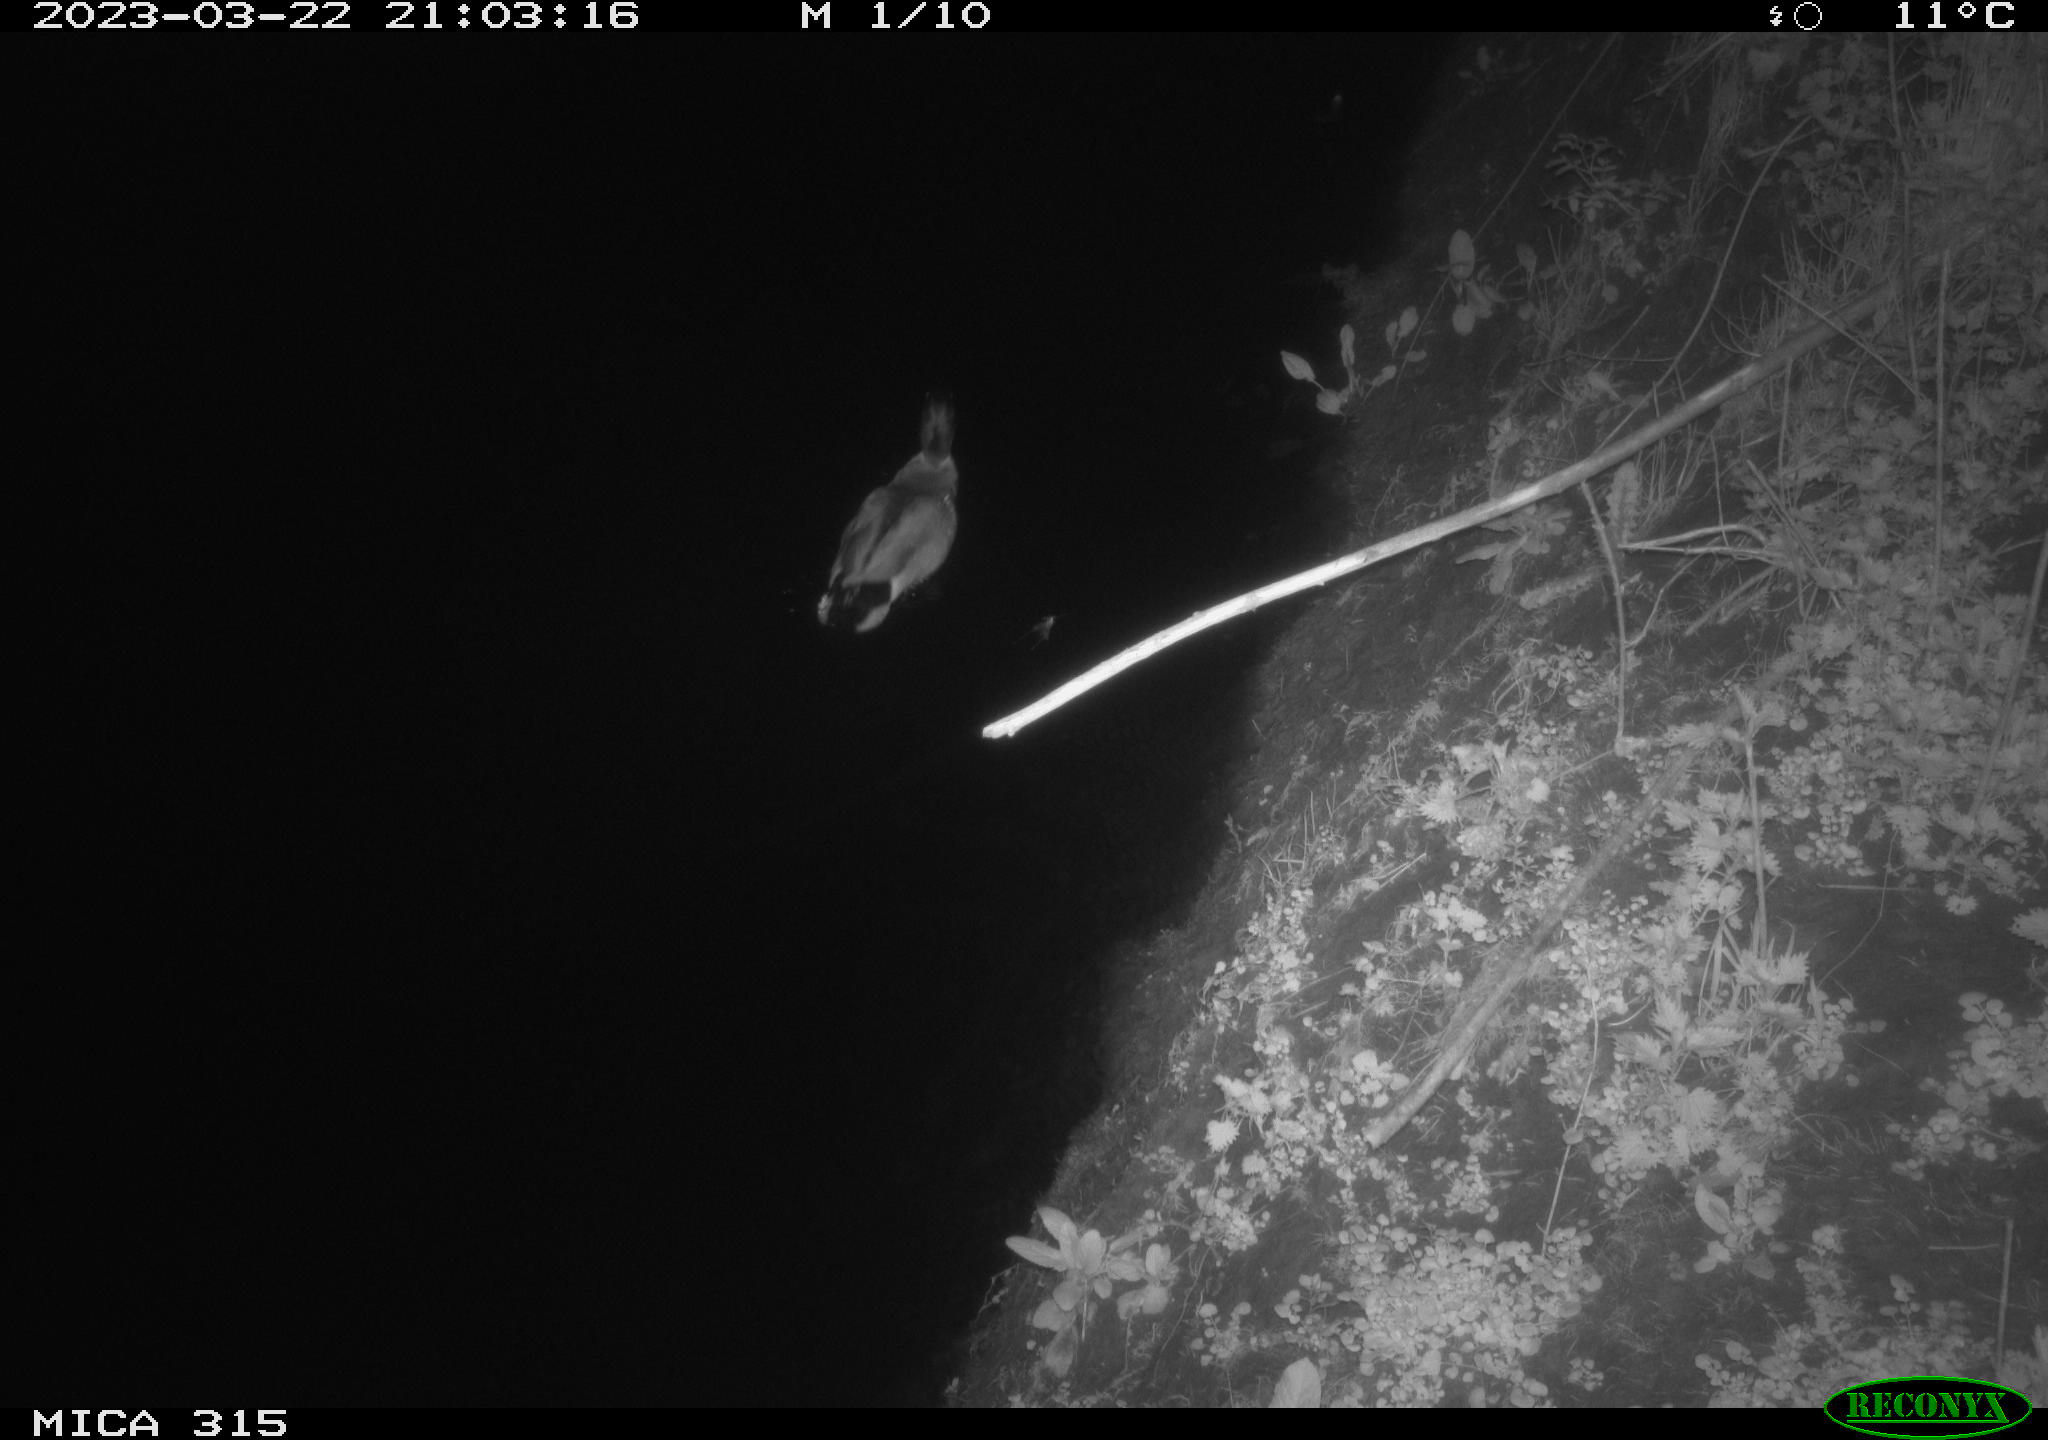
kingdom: Animalia
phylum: Chordata
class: Aves
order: Anseriformes
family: Anatidae
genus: Anas
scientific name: Anas
